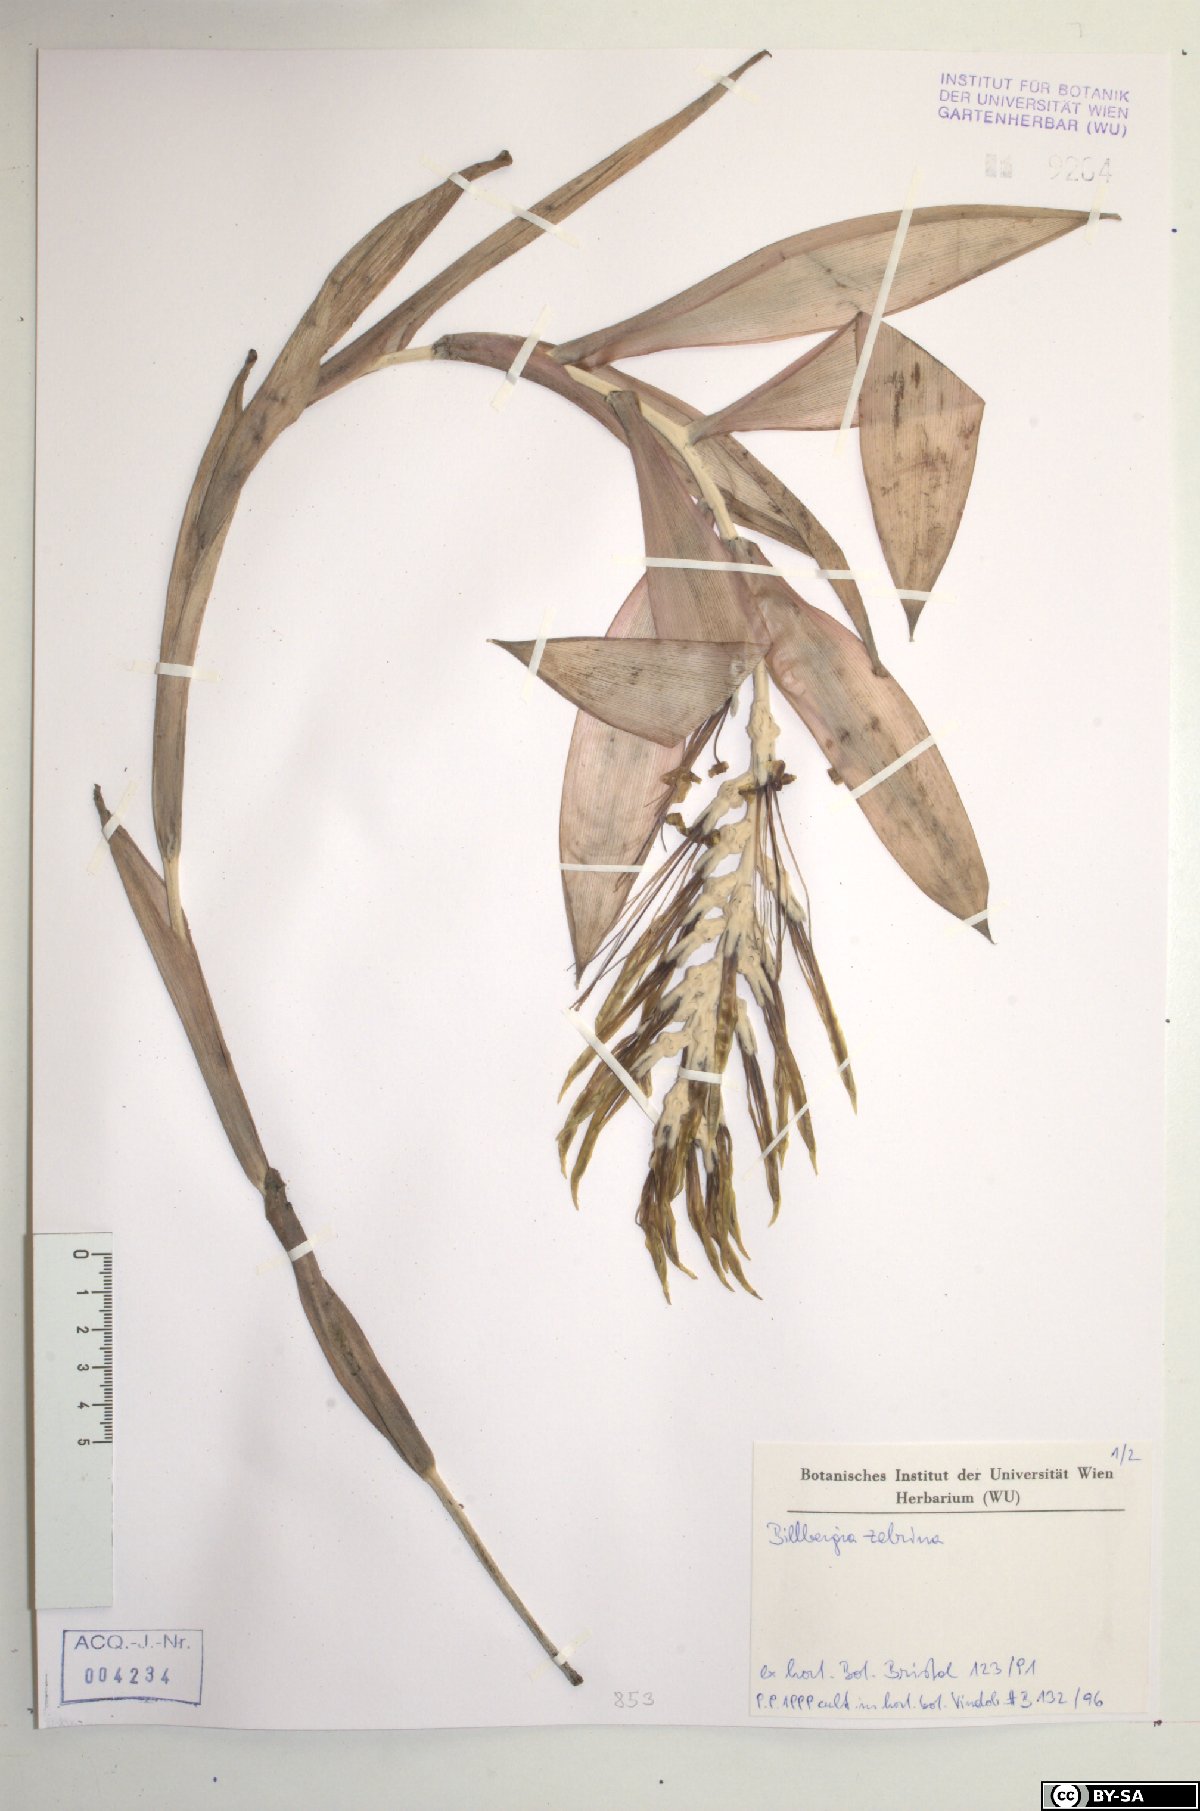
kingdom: Plantae
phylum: Tracheophyta
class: Liliopsida
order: Poales
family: Bromeliaceae
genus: Billbergia
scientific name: Billbergia zebrina
